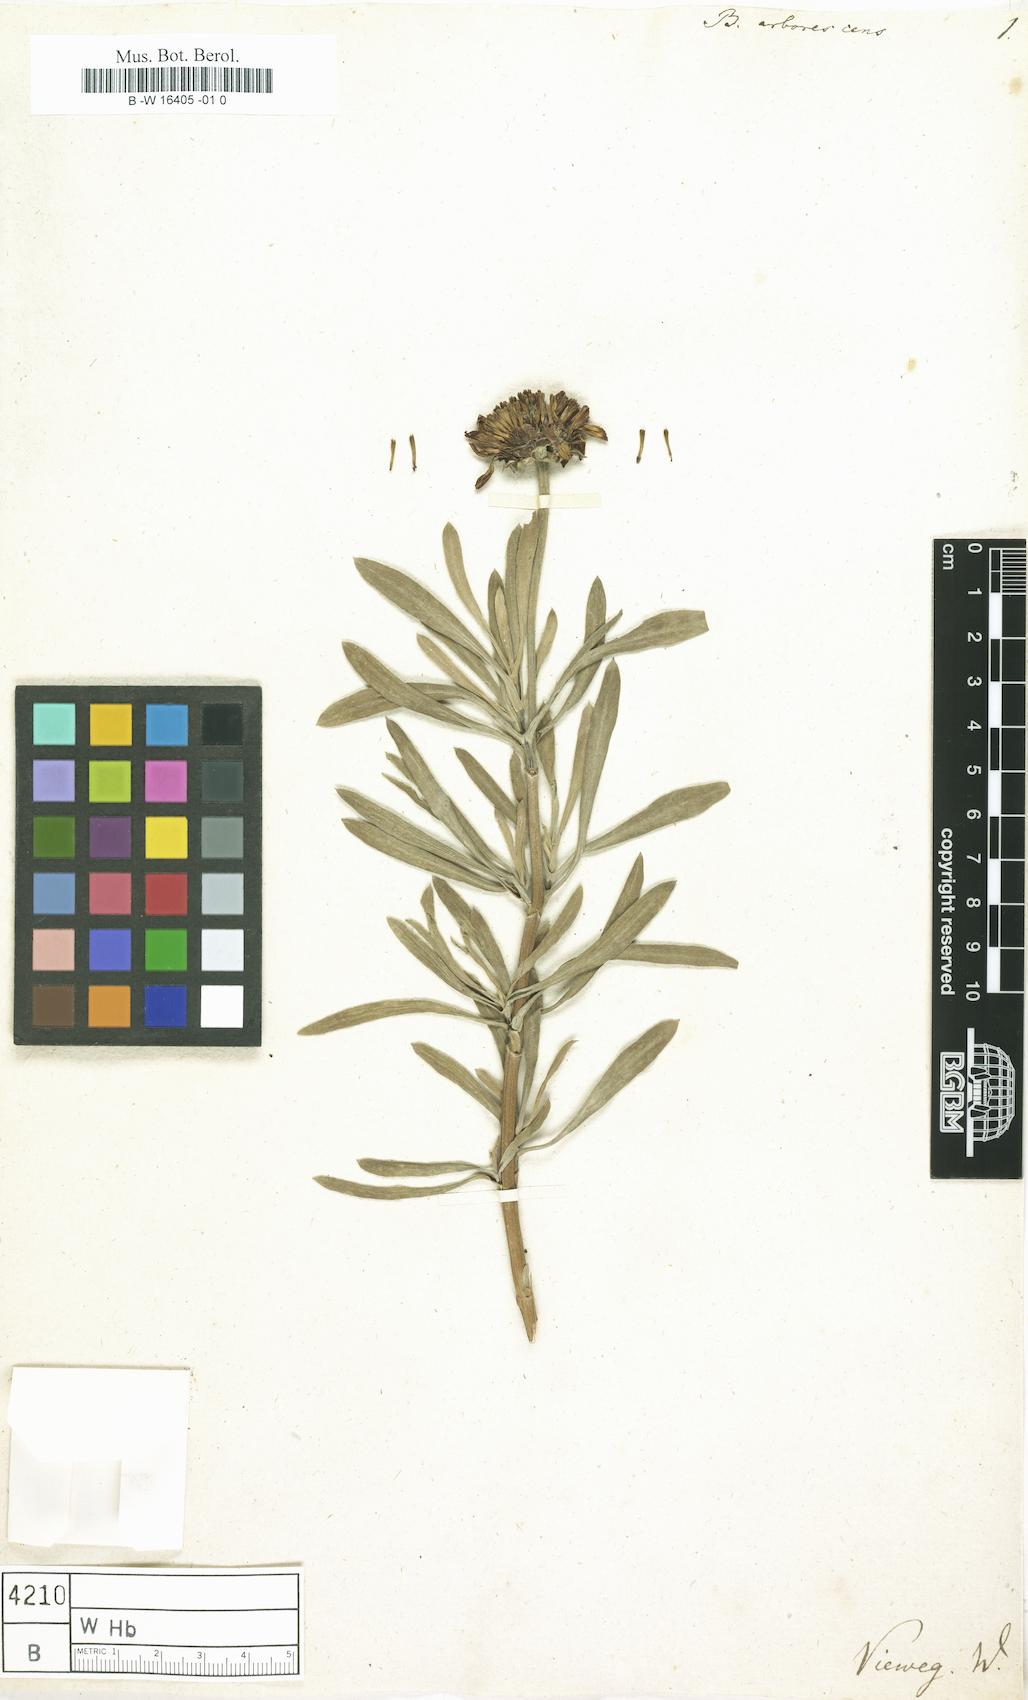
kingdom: Plantae
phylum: Tracheophyta
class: Magnoliopsida
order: Asterales
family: Asteraceae
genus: Borrichia
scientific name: Borrichia arborescens
